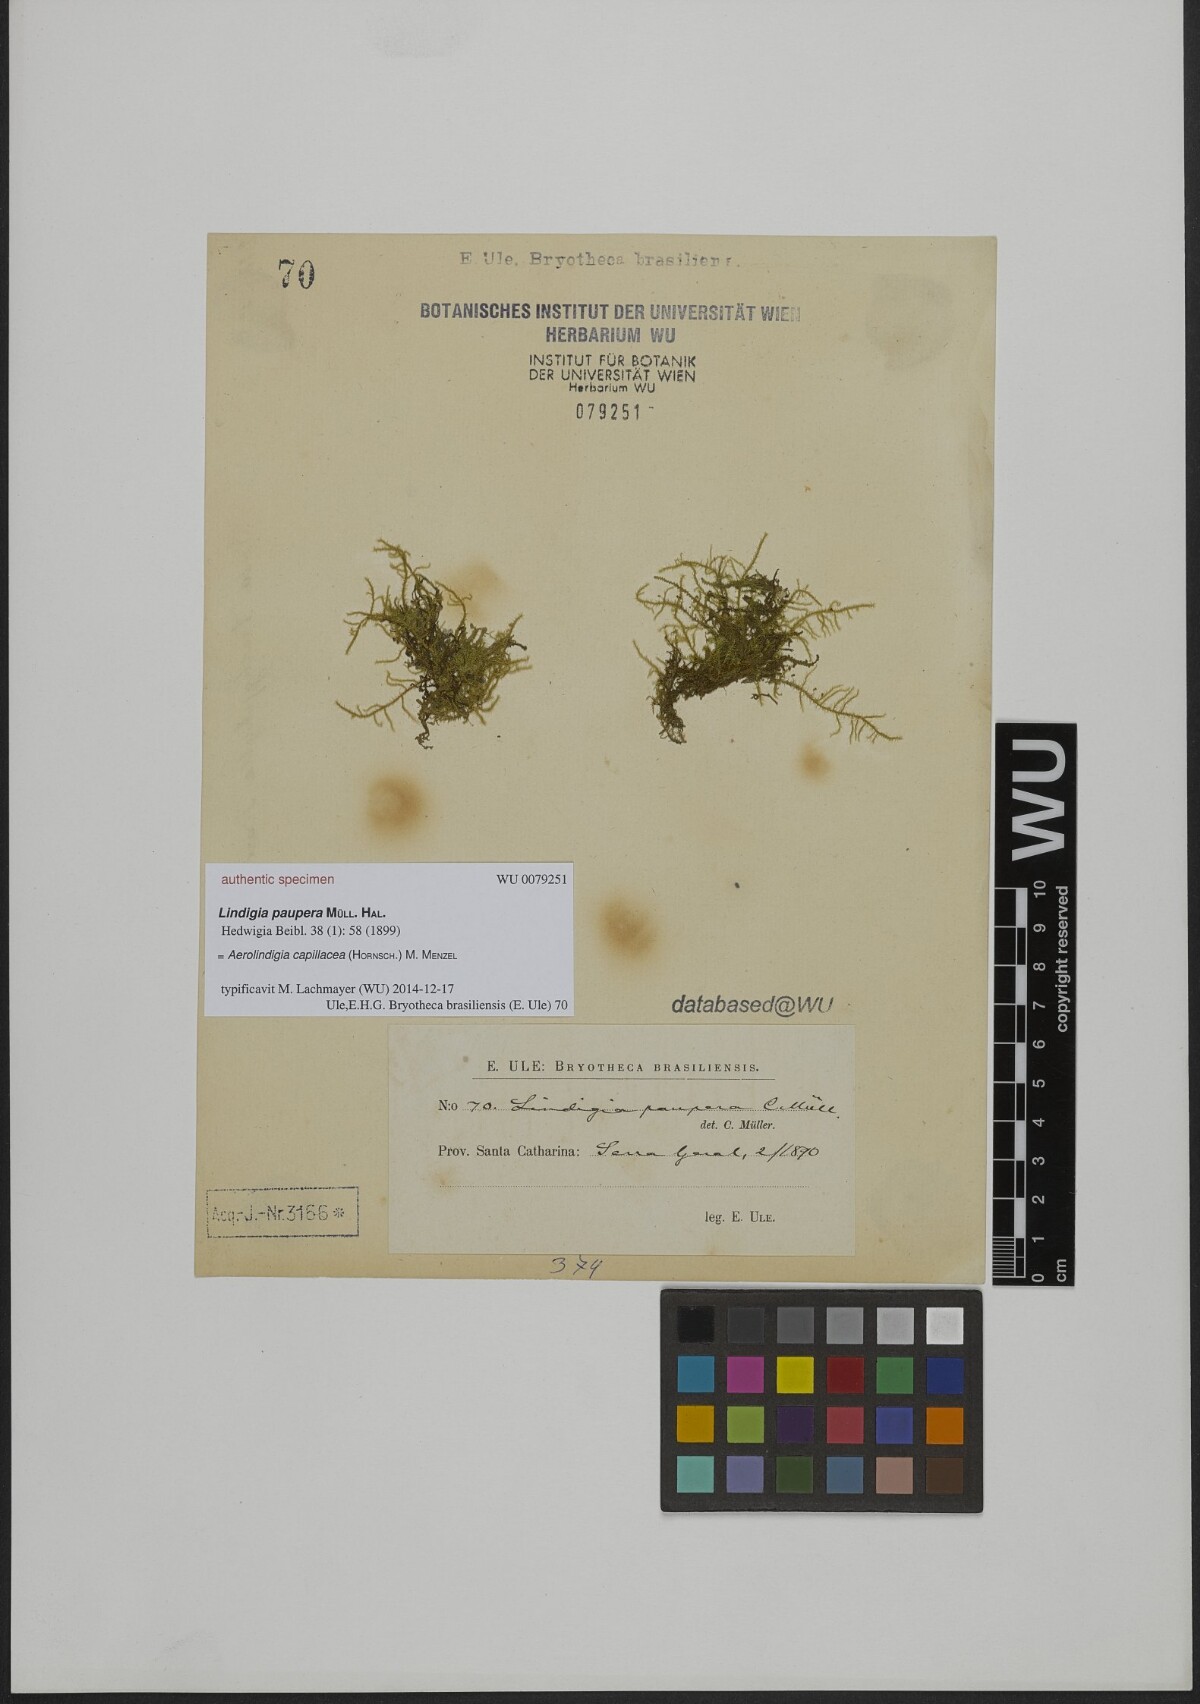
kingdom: Plantae
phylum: Bryophyta
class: Bryopsida
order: Hypnales
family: Brachytheciaceae
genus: Lindigia
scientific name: Lindigia
